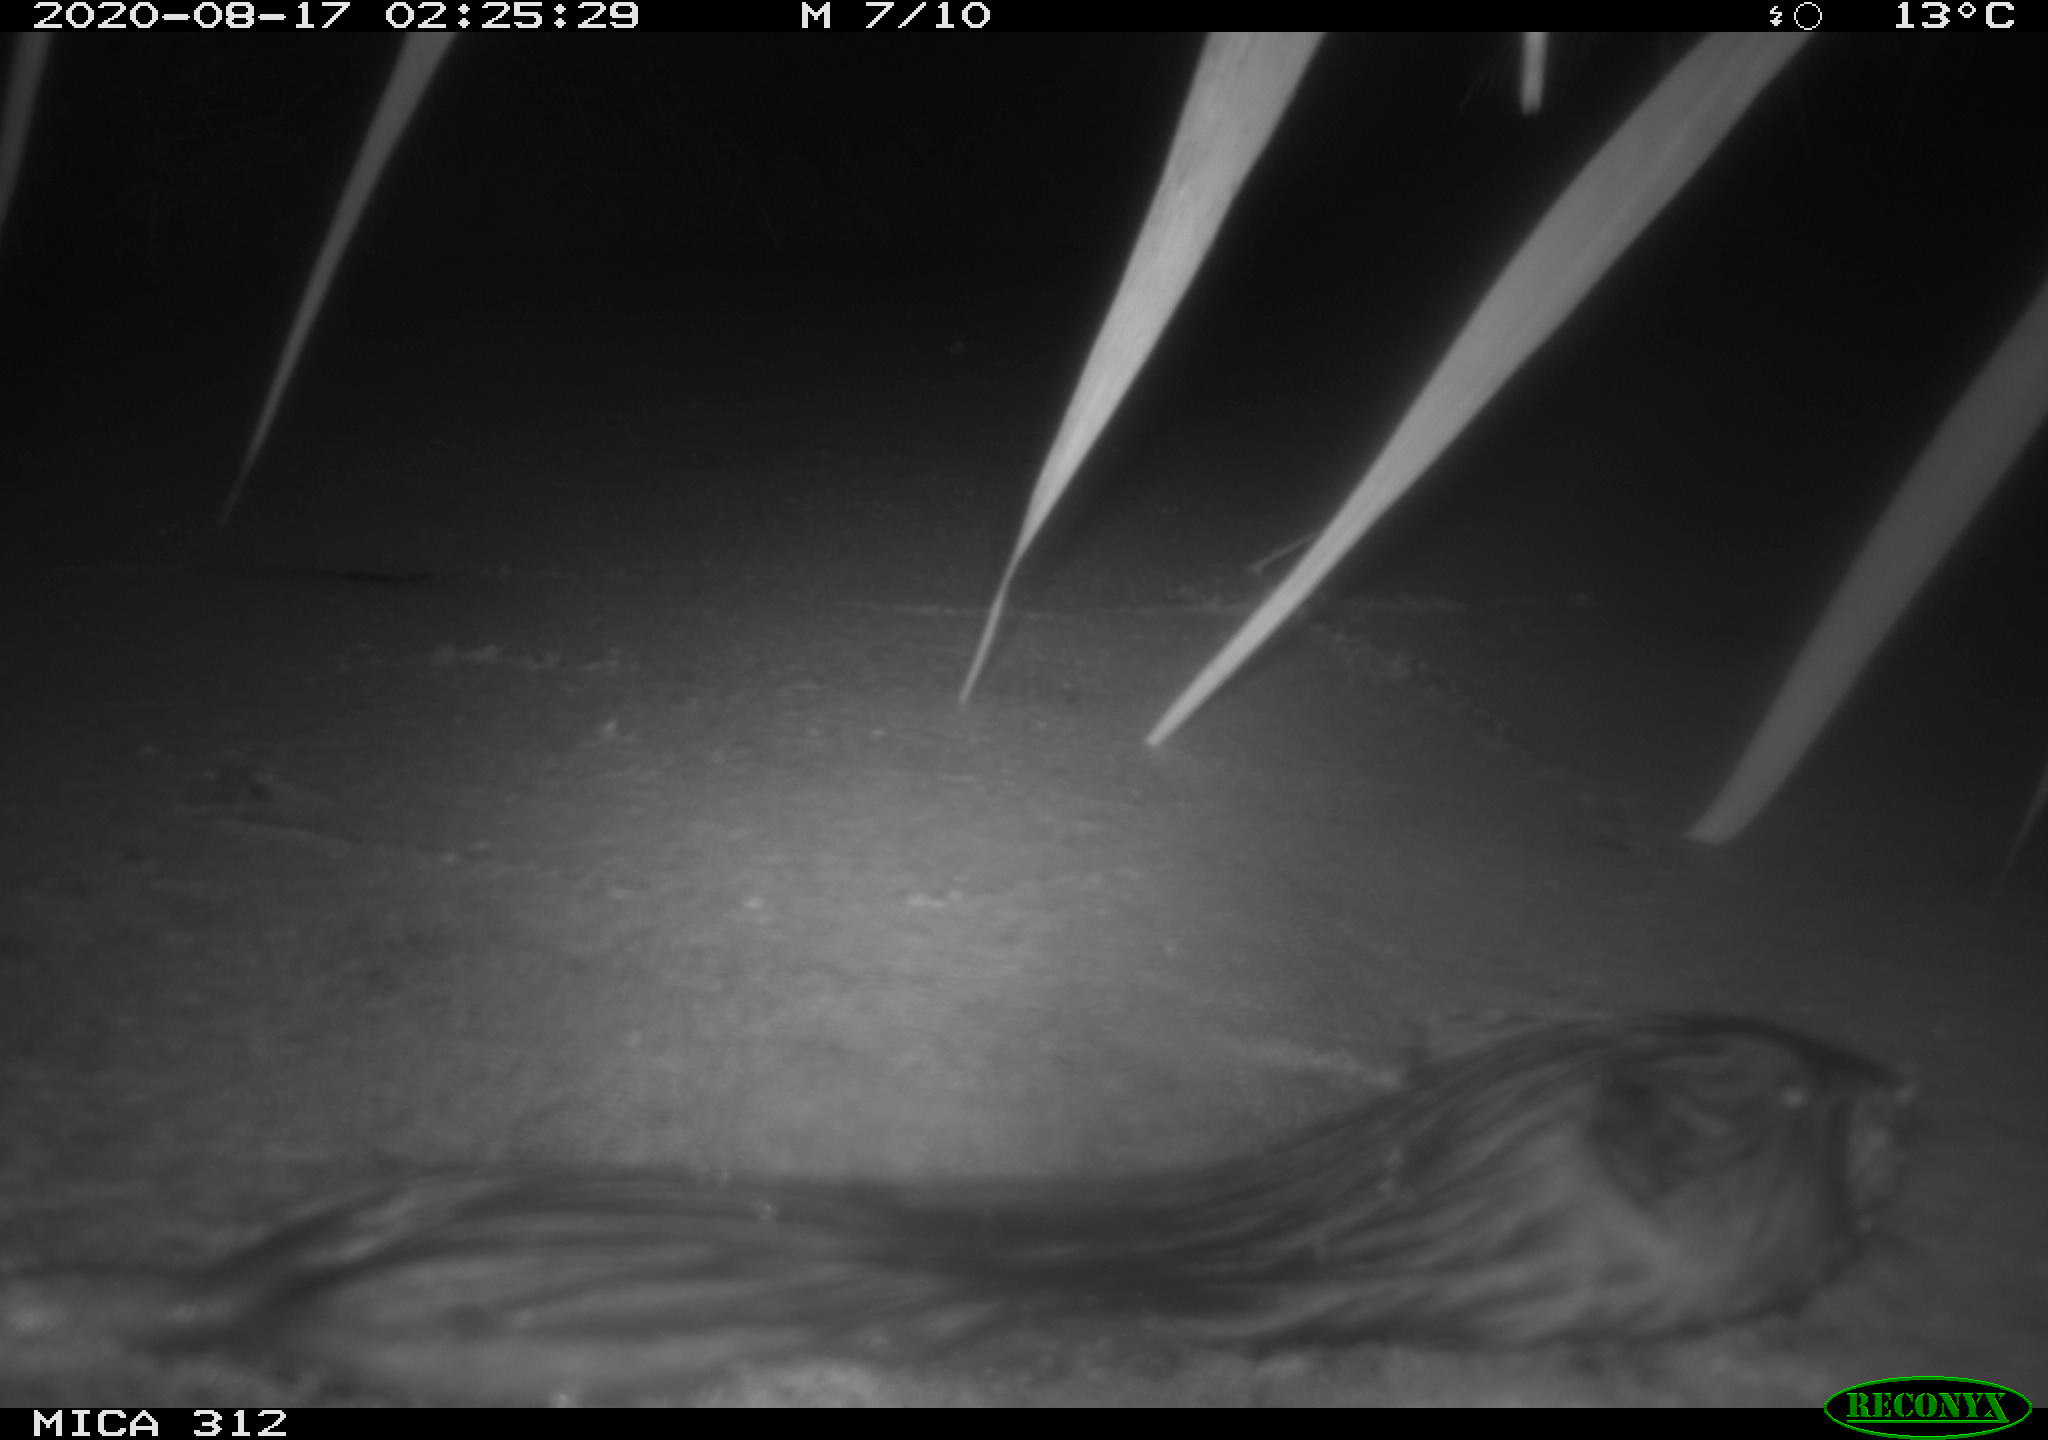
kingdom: Animalia
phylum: Chordata
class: Mammalia
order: Rodentia
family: Cricetidae
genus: Ondatra
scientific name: Ondatra zibethicus
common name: Muskrat
